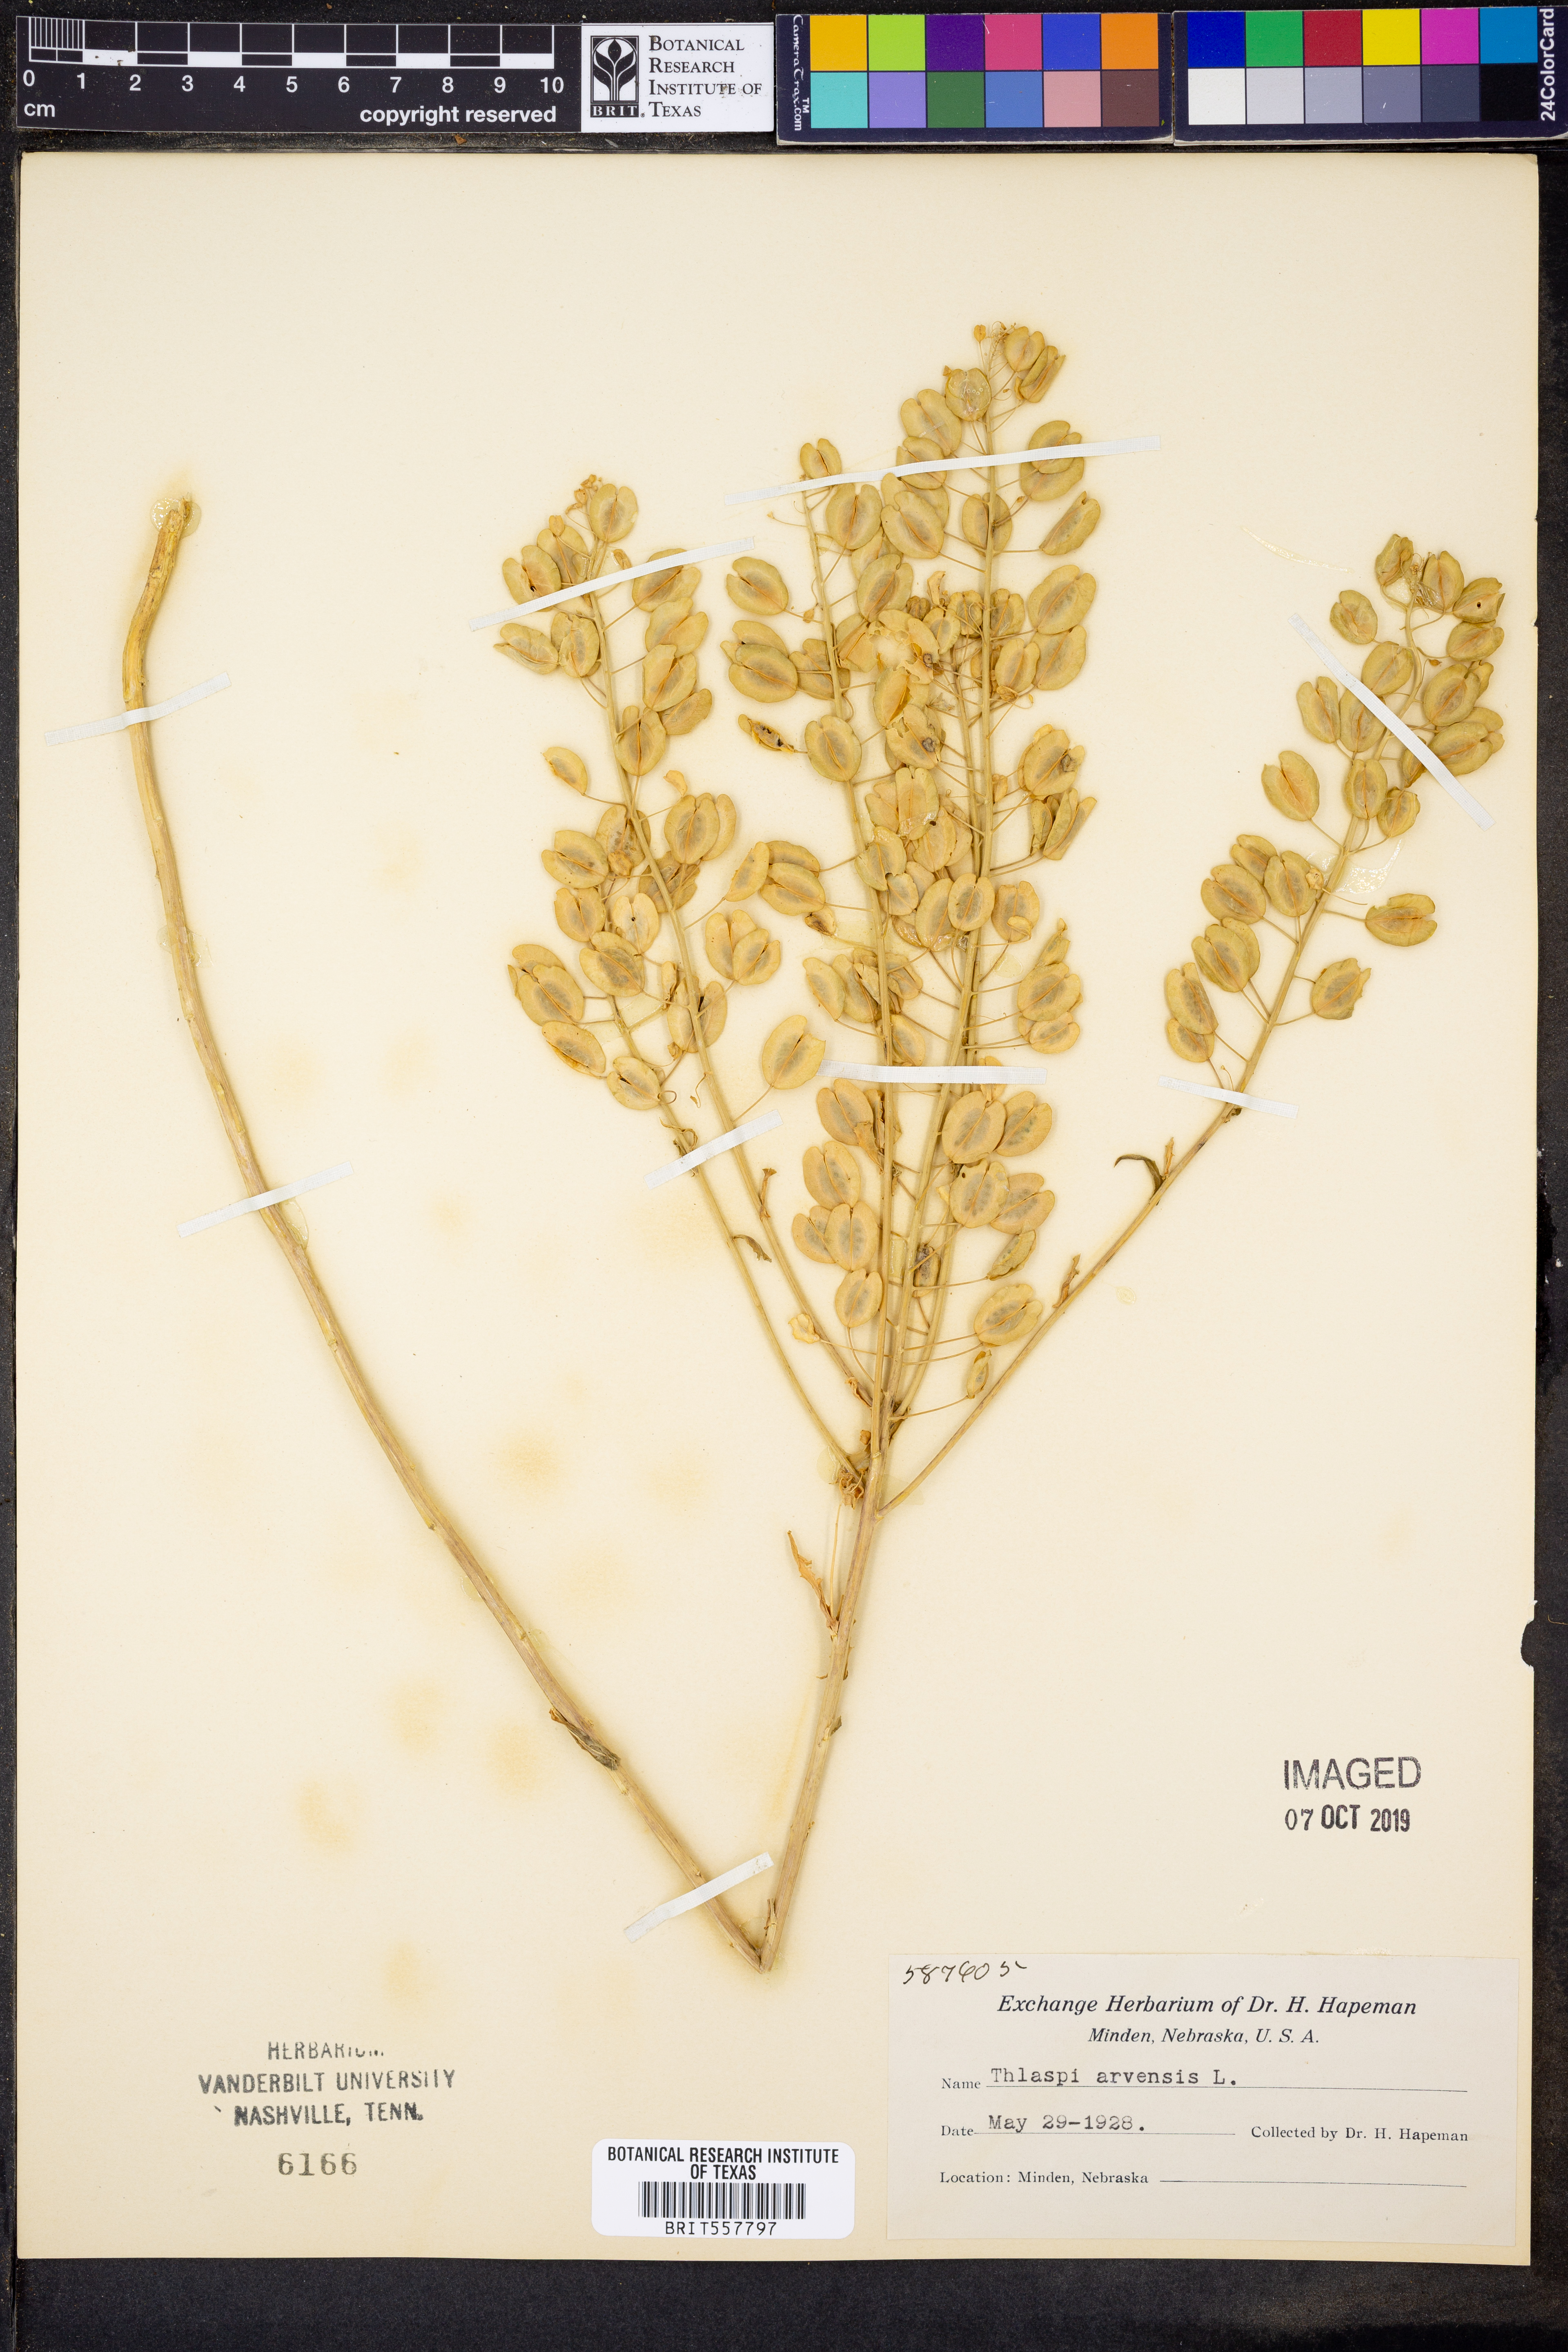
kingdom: Plantae
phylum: Tracheophyta
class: Magnoliopsida
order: Brassicales
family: Brassicaceae
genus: Thlaspi
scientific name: Thlaspi arvense
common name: Field pennycress
